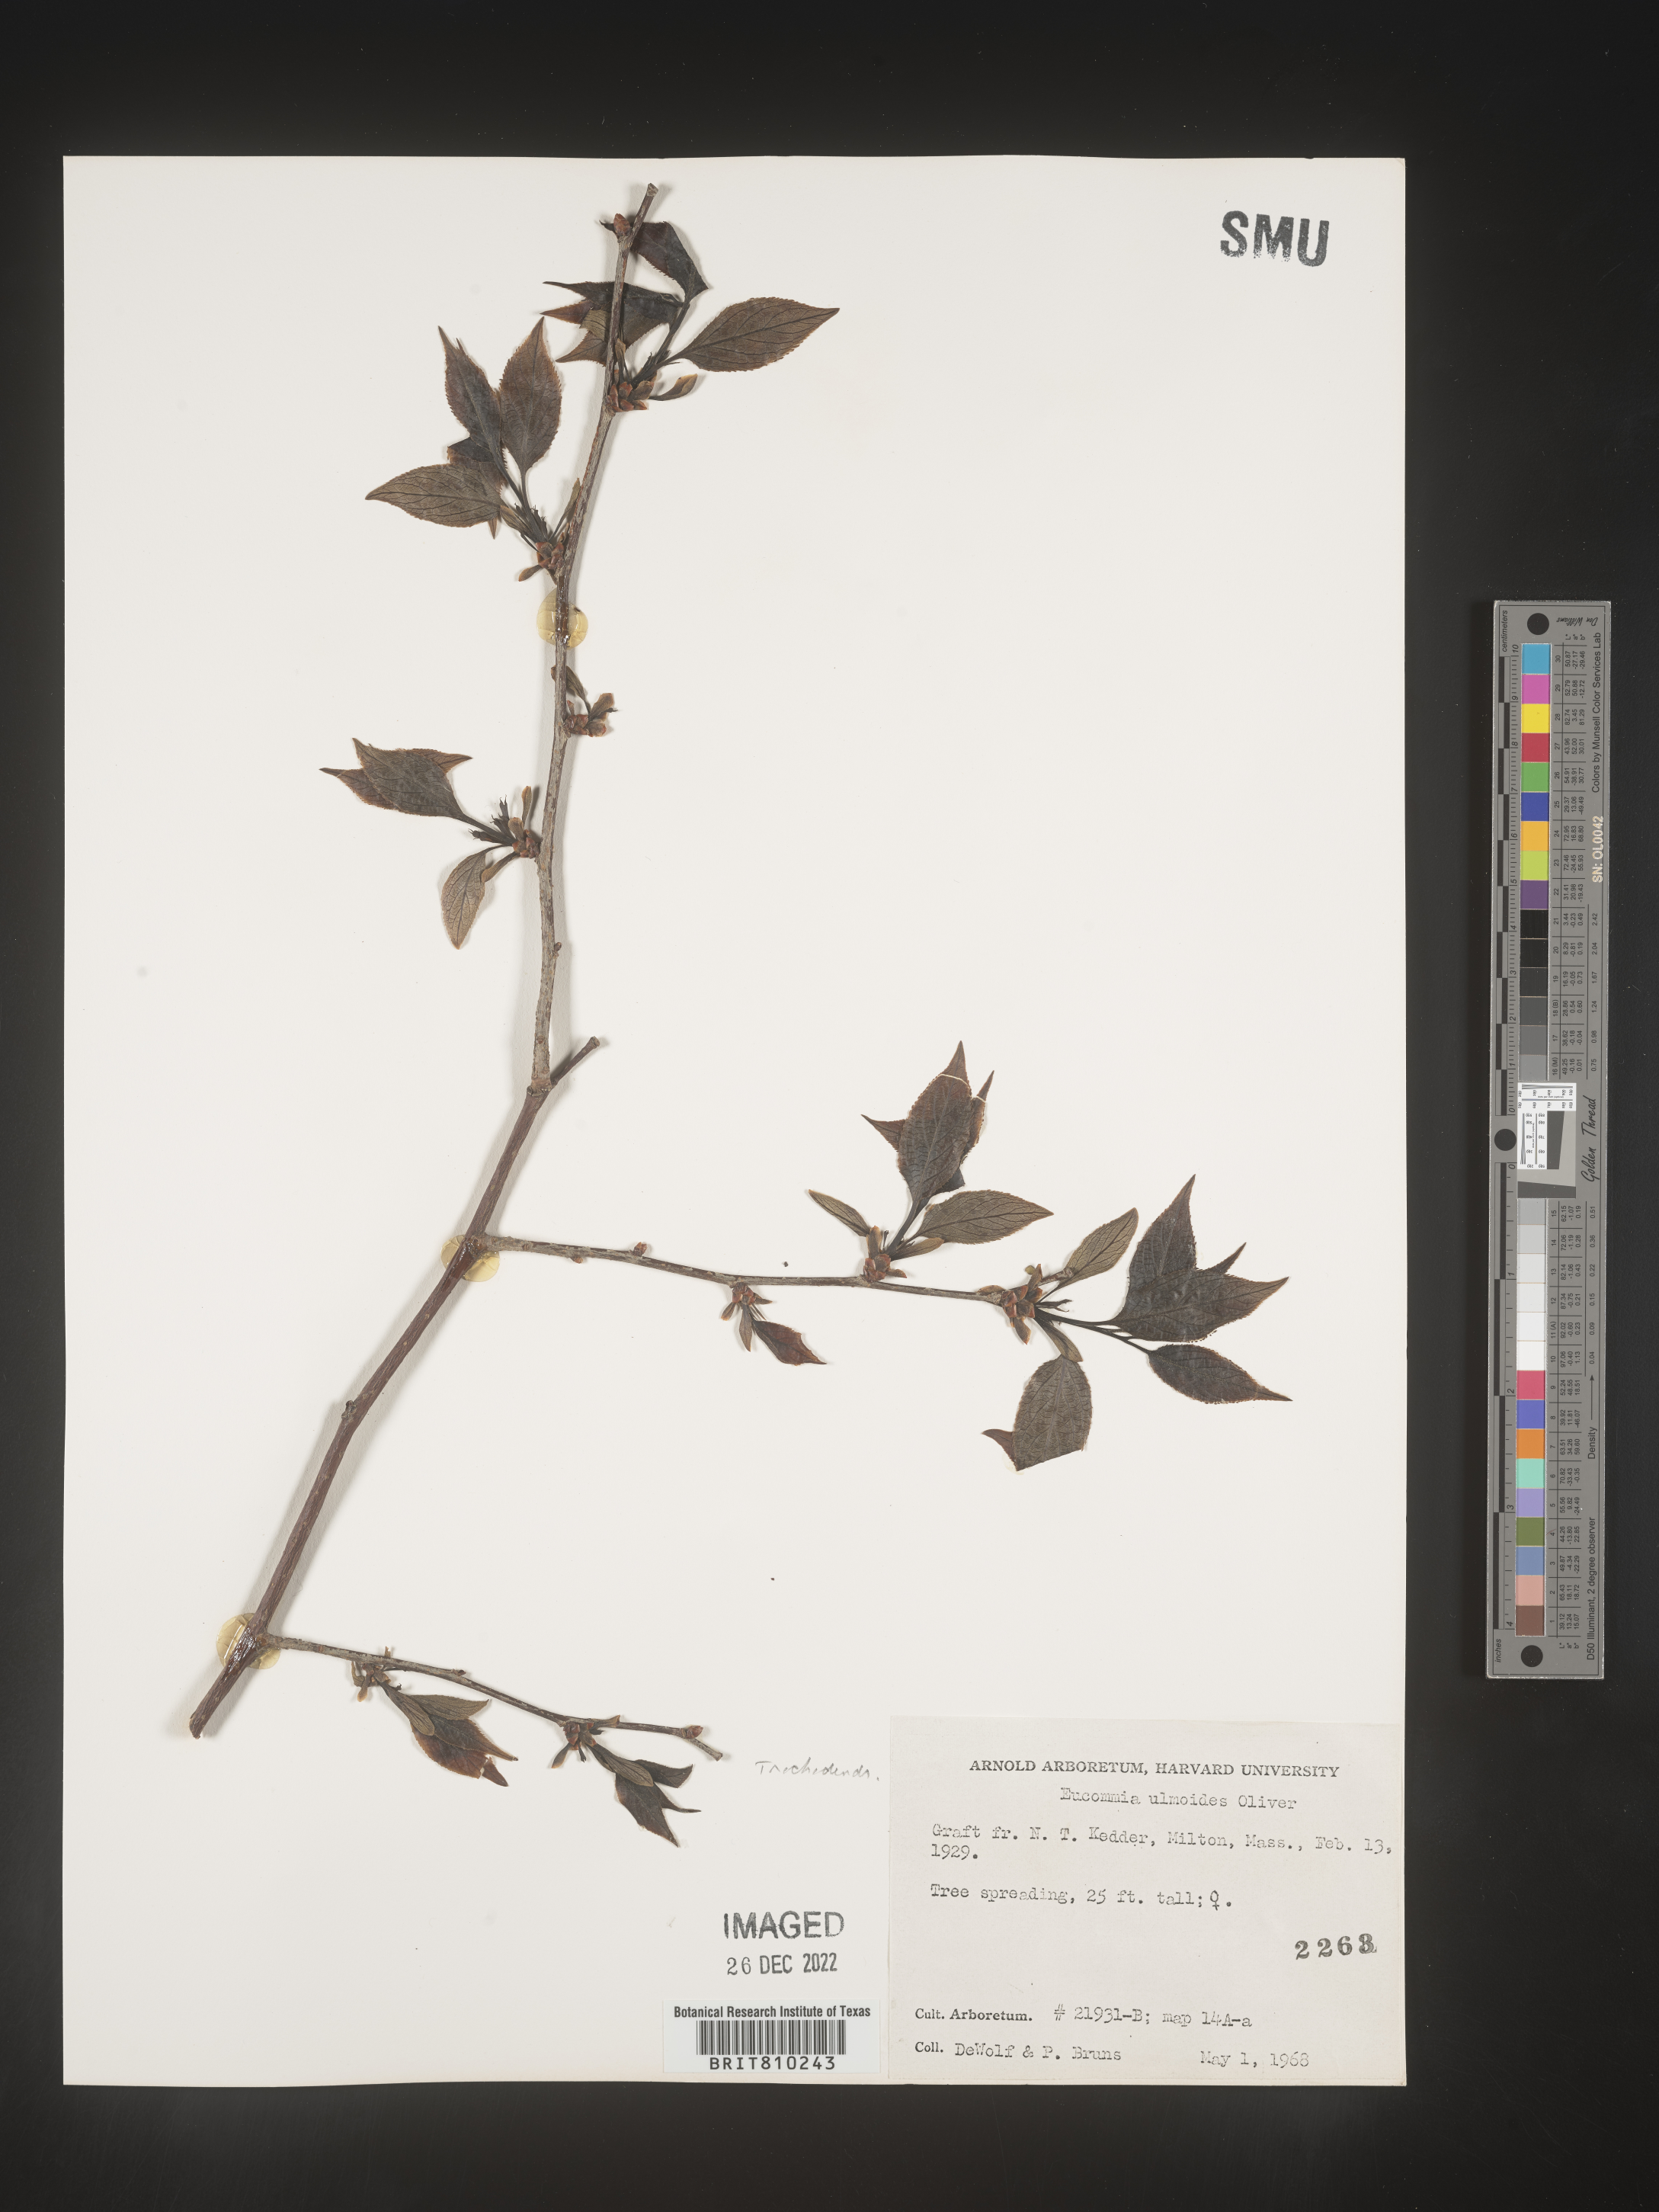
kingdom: Plantae
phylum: Tracheophyta
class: Magnoliopsida
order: Garryales
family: Eucommiaceae
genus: Eucommia
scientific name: Eucommia
